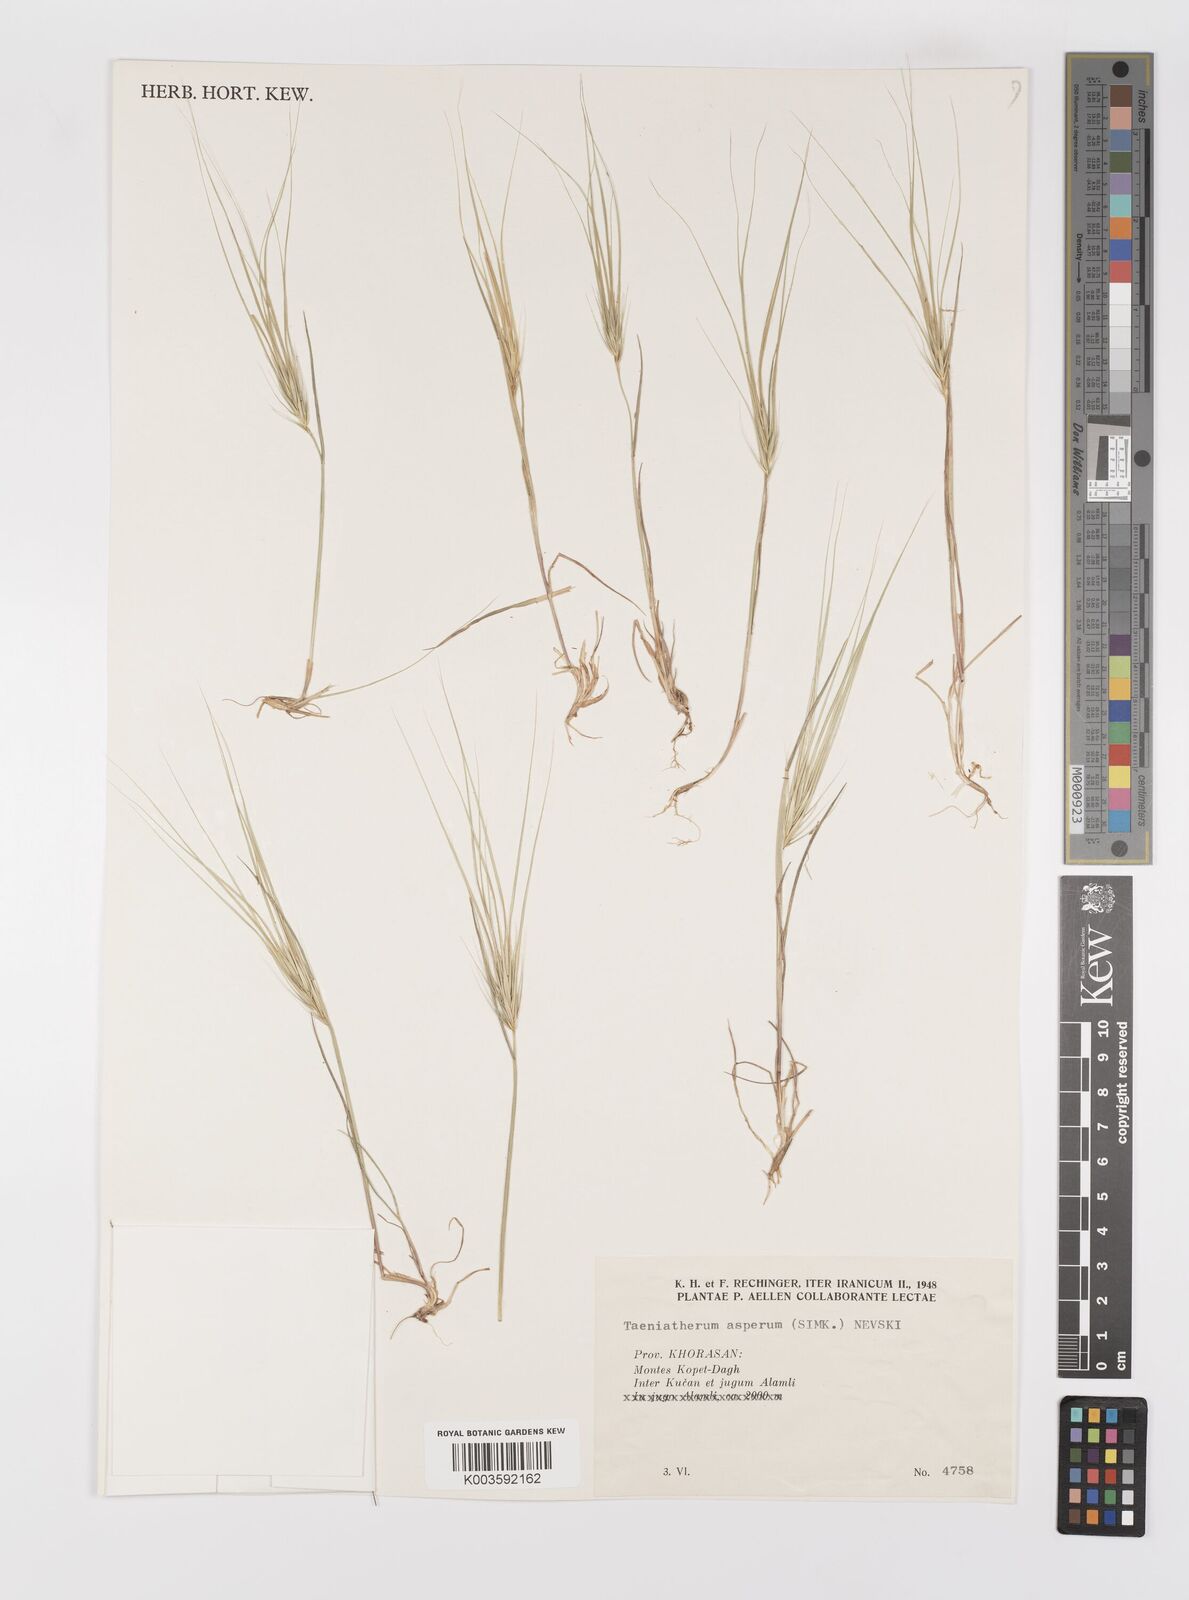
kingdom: Plantae
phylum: Tracheophyta
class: Liliopsida
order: Poales
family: Poaceae
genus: Taeniatherum
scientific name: Taeniatherum caput-medusae
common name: Medusahead
